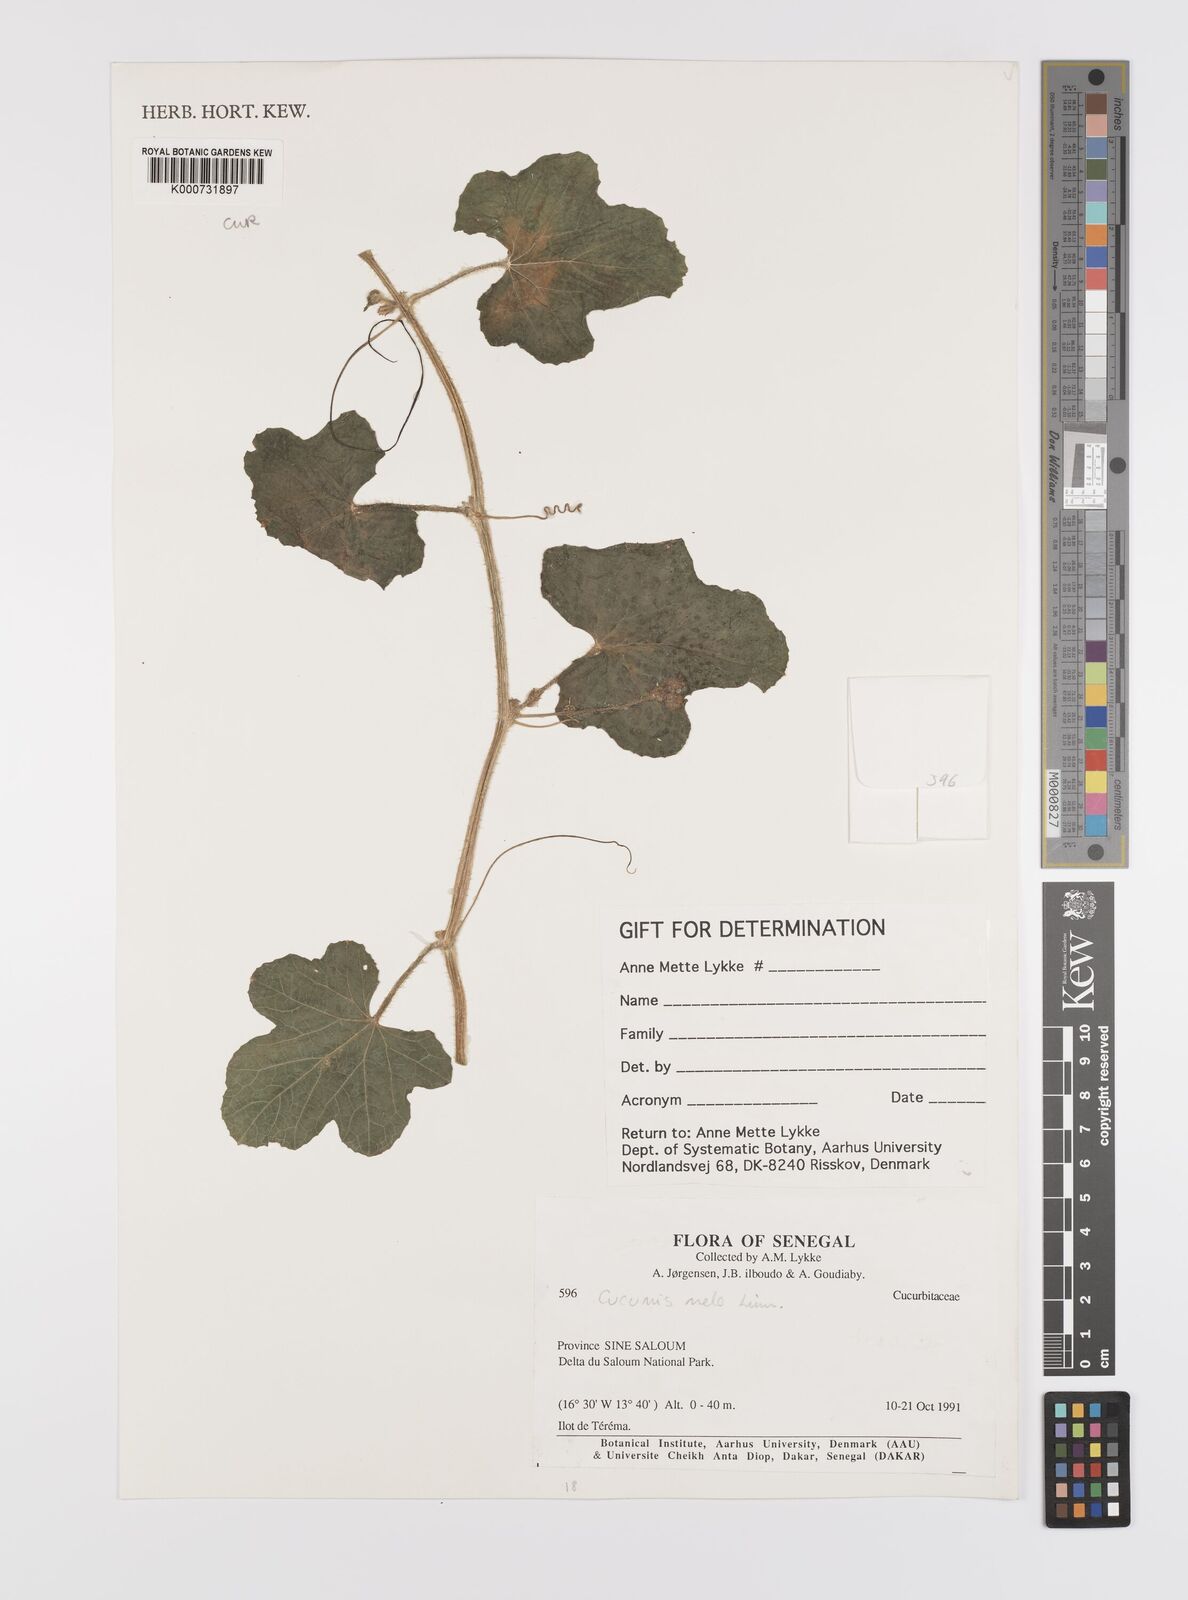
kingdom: Plantae
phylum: Tracheophyta
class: Magnoliopsida
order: Cucurbitales
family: Cucurbitaceae
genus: Cucumis
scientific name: Cucumis melo
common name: Melon
